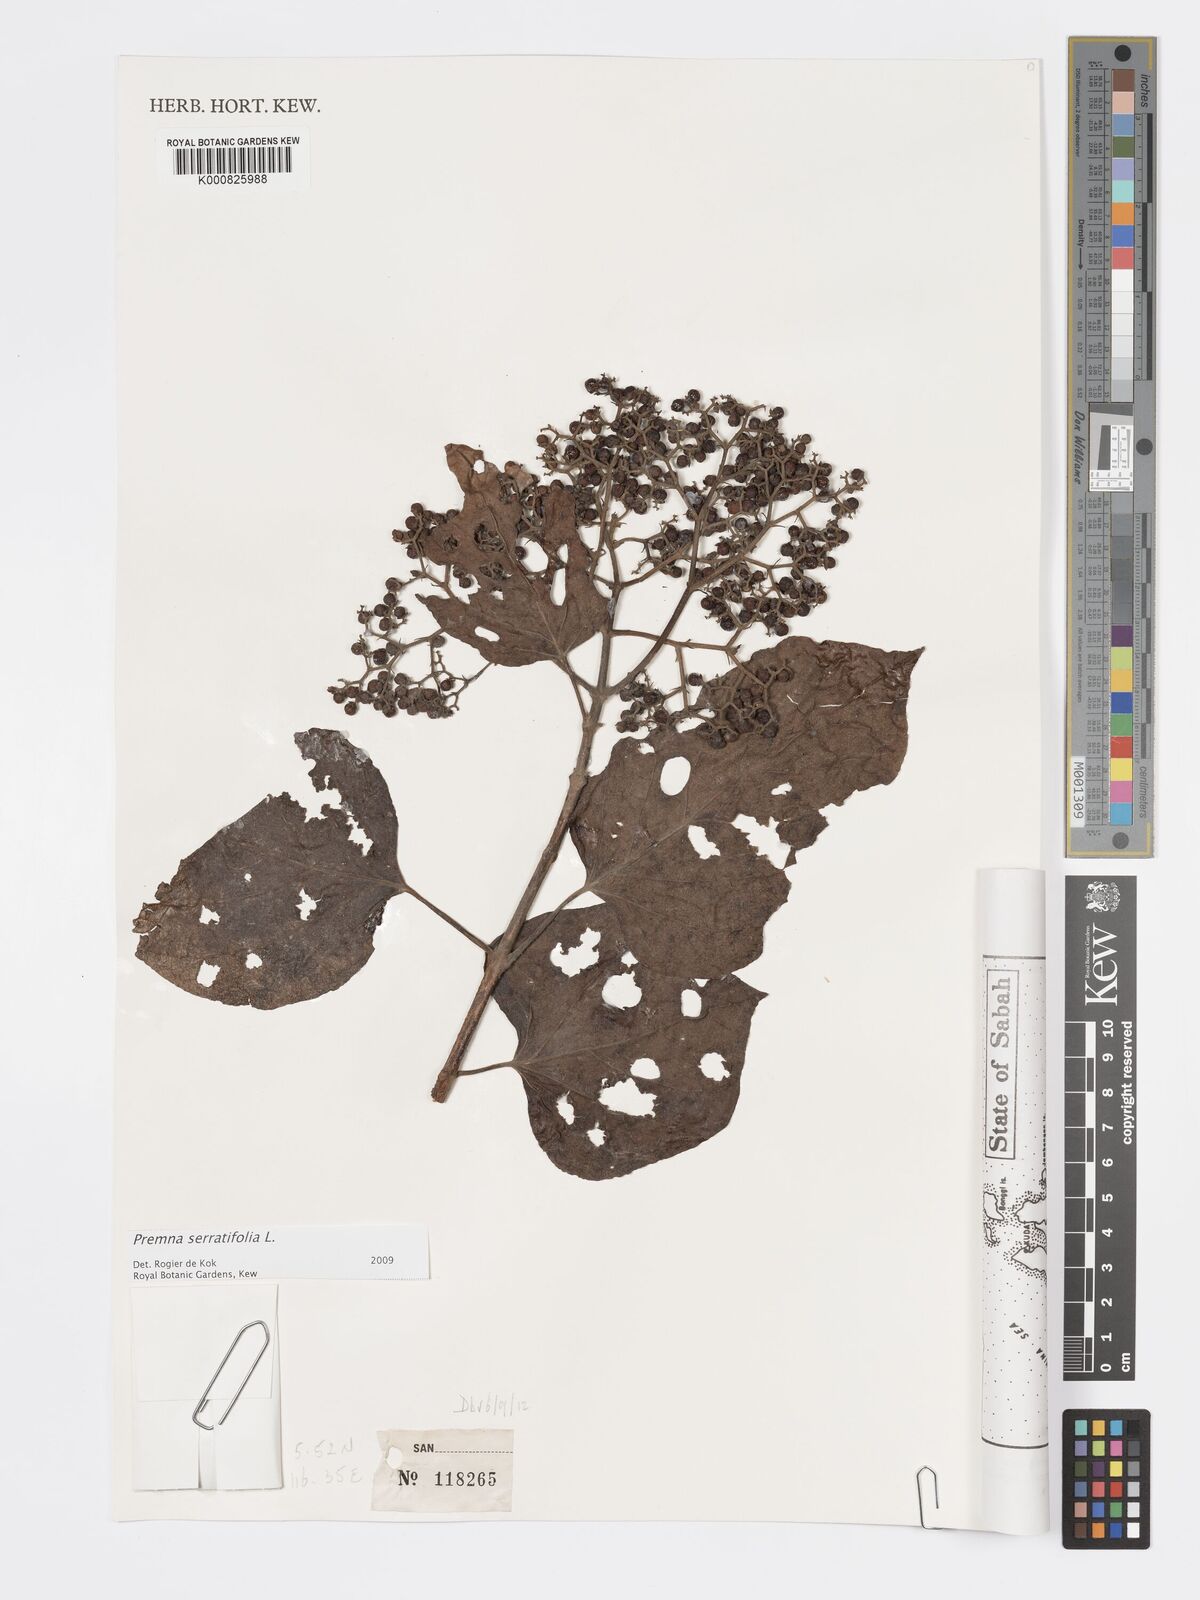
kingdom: Plantae
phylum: Tracheophyta
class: Magnoliopsida
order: Lamiales
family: Lamiaceae
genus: Premna
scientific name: Premna serratifolia
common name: Bastard guelder
